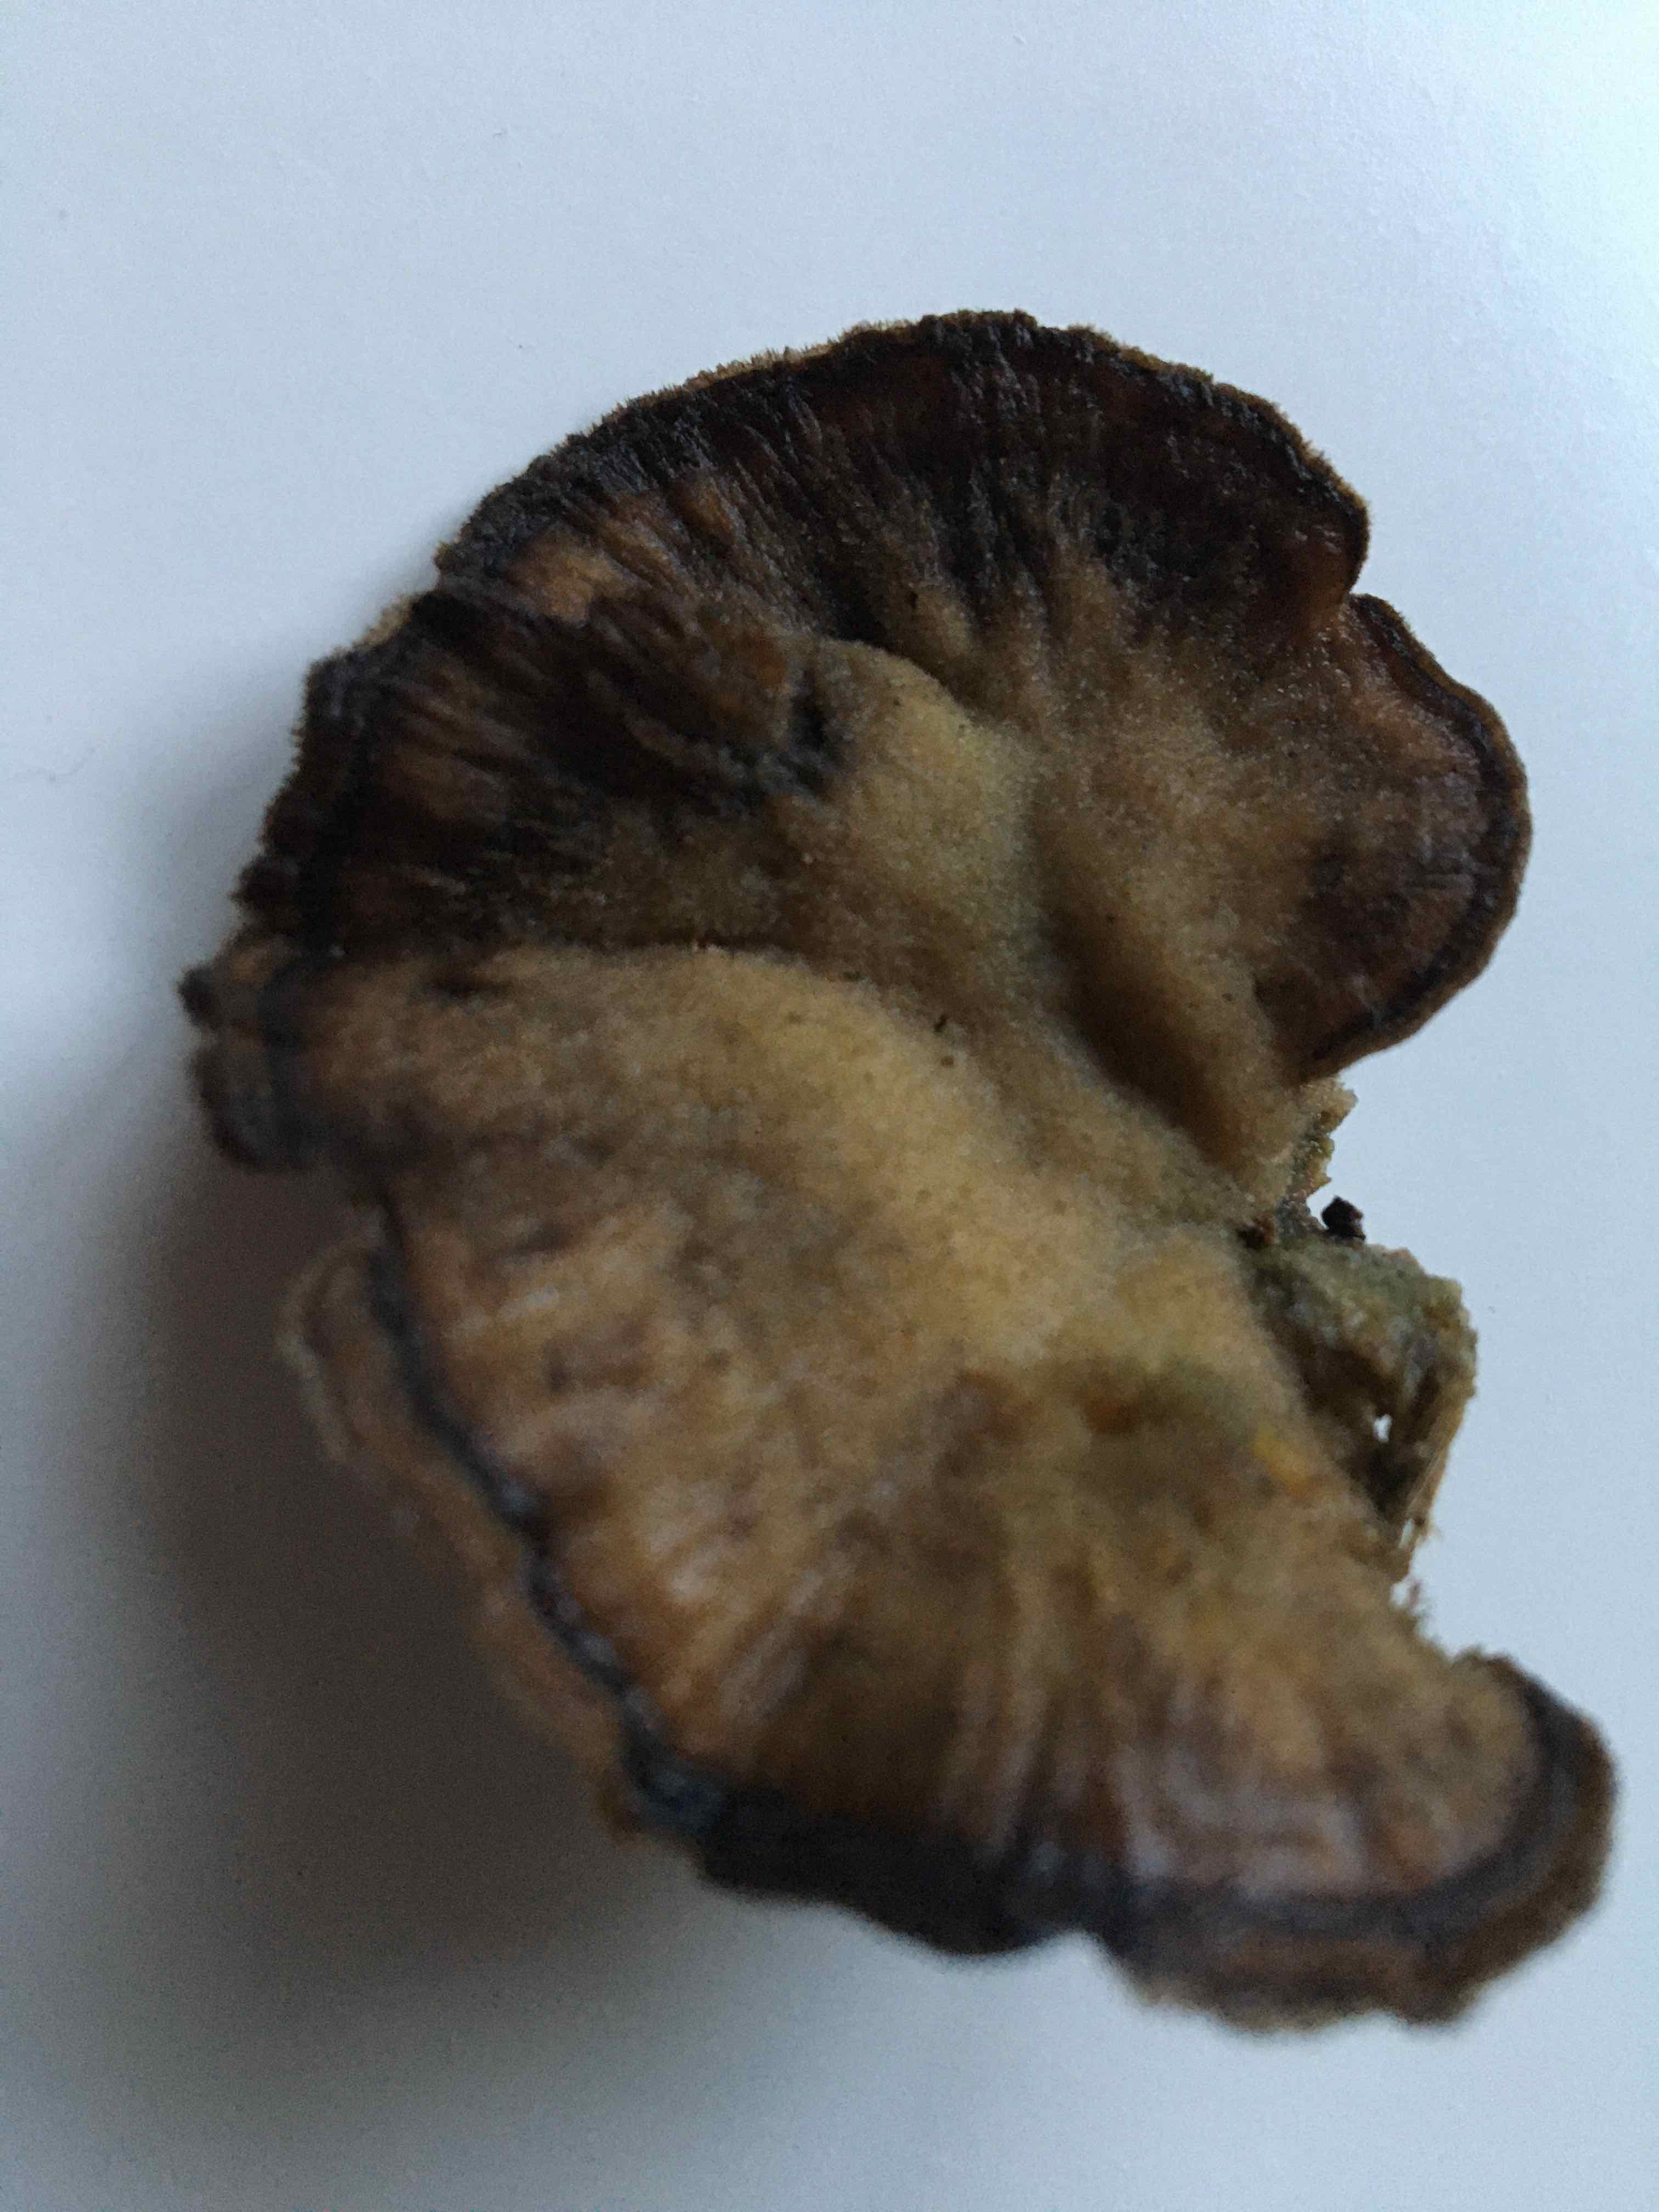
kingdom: Fungi
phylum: Basidiomycota
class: Agaricomycetes
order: Polyporales
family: Phanerochaetaceae
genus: Bjerkandera
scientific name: Bjerkandera adusta
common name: sveden sodporesvamp
